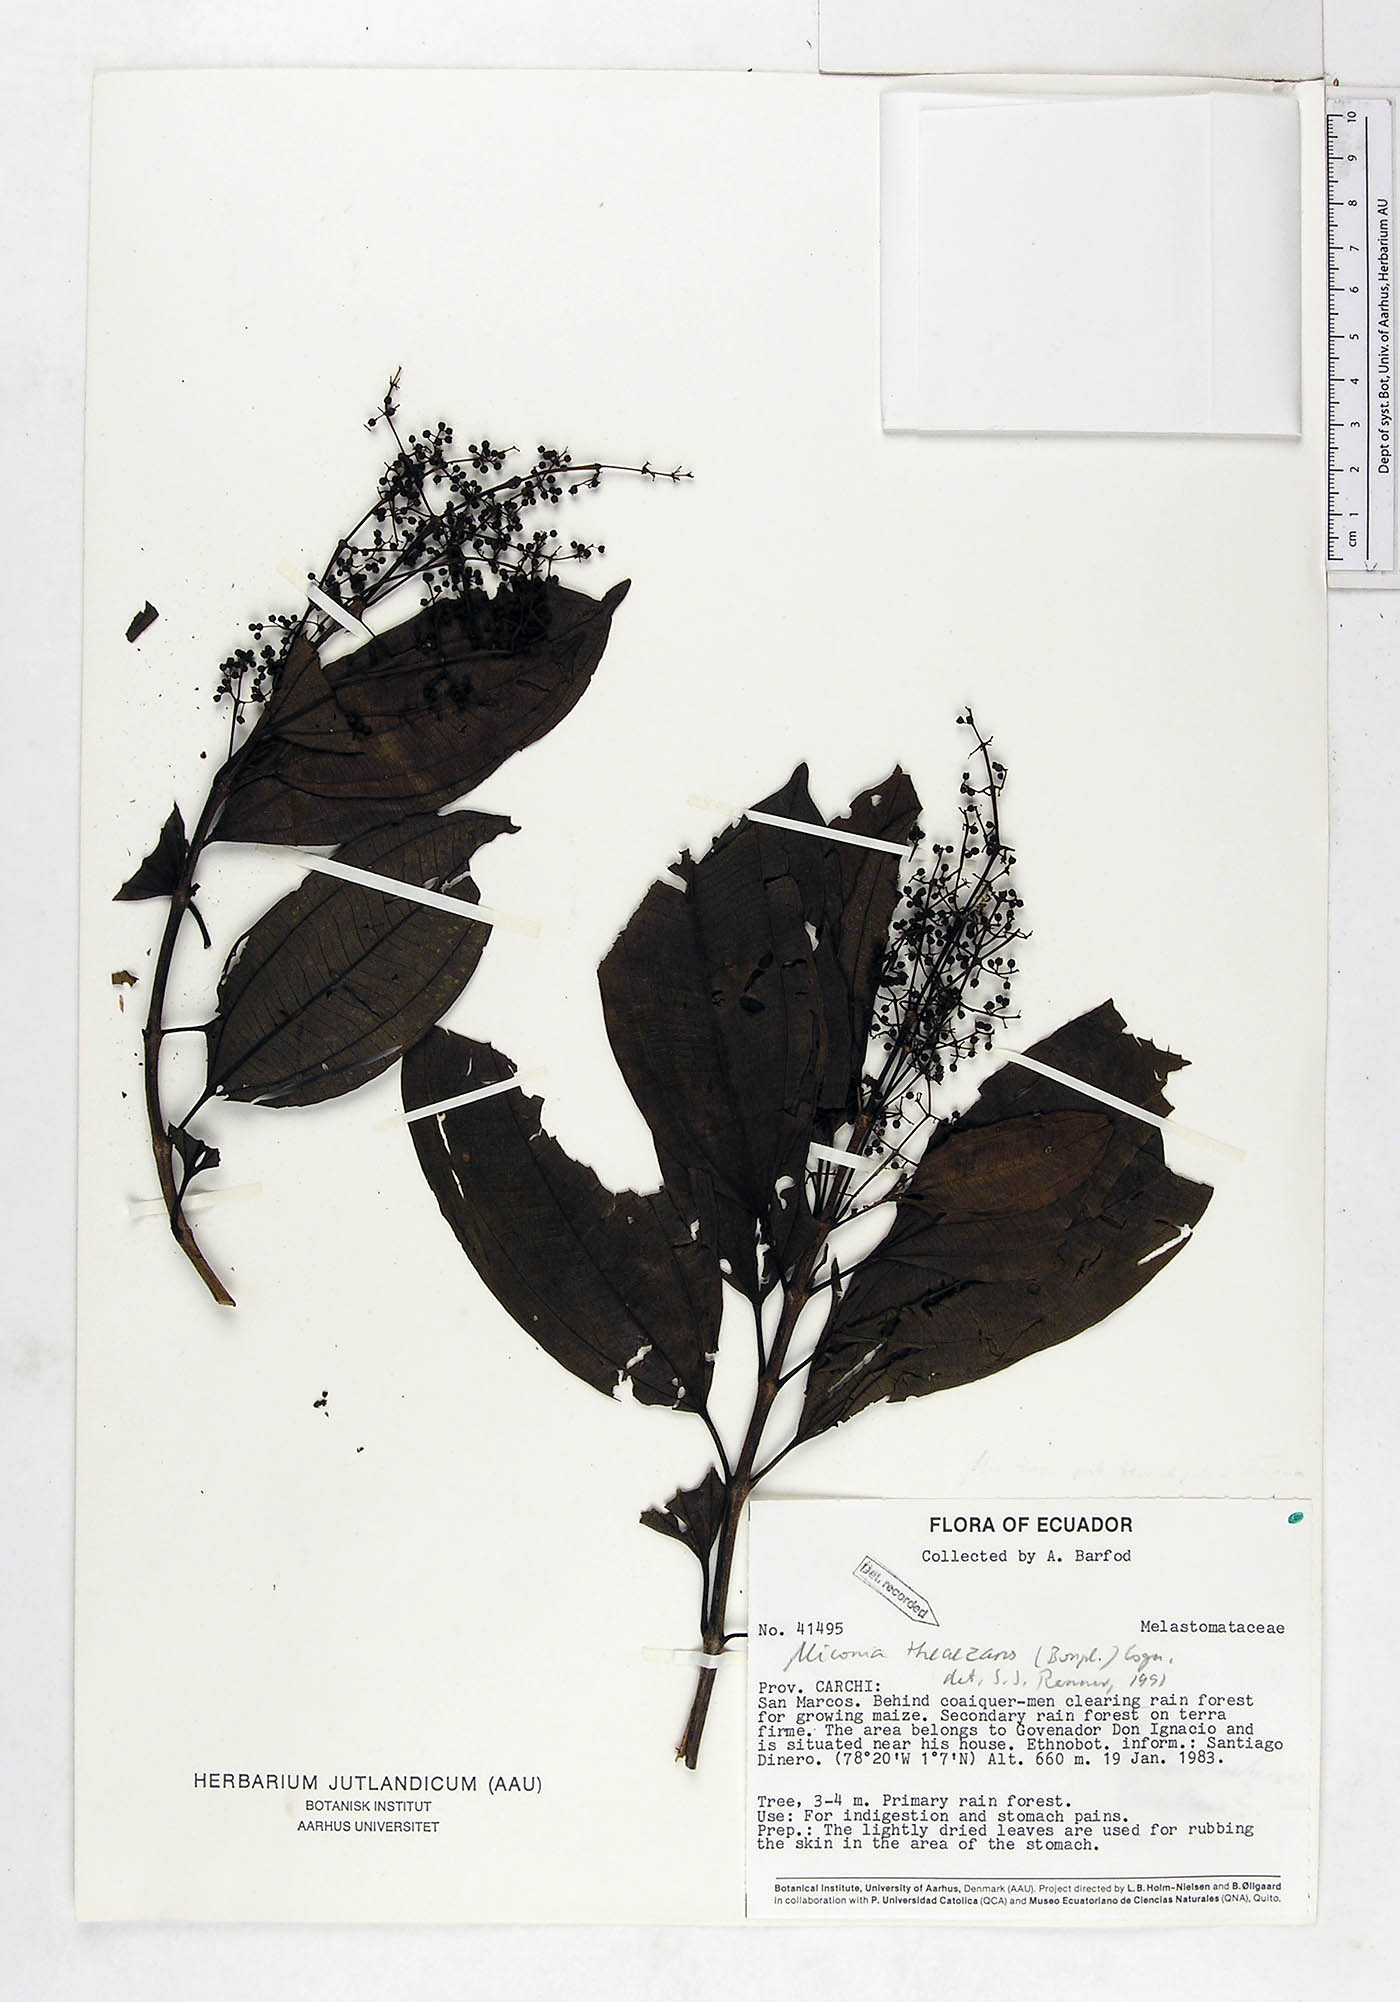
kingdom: Plantae
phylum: Tracheophyta
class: Magnoliopsida
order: Myrtales
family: Melastomataceae
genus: Miconia
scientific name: Miconia theizans
